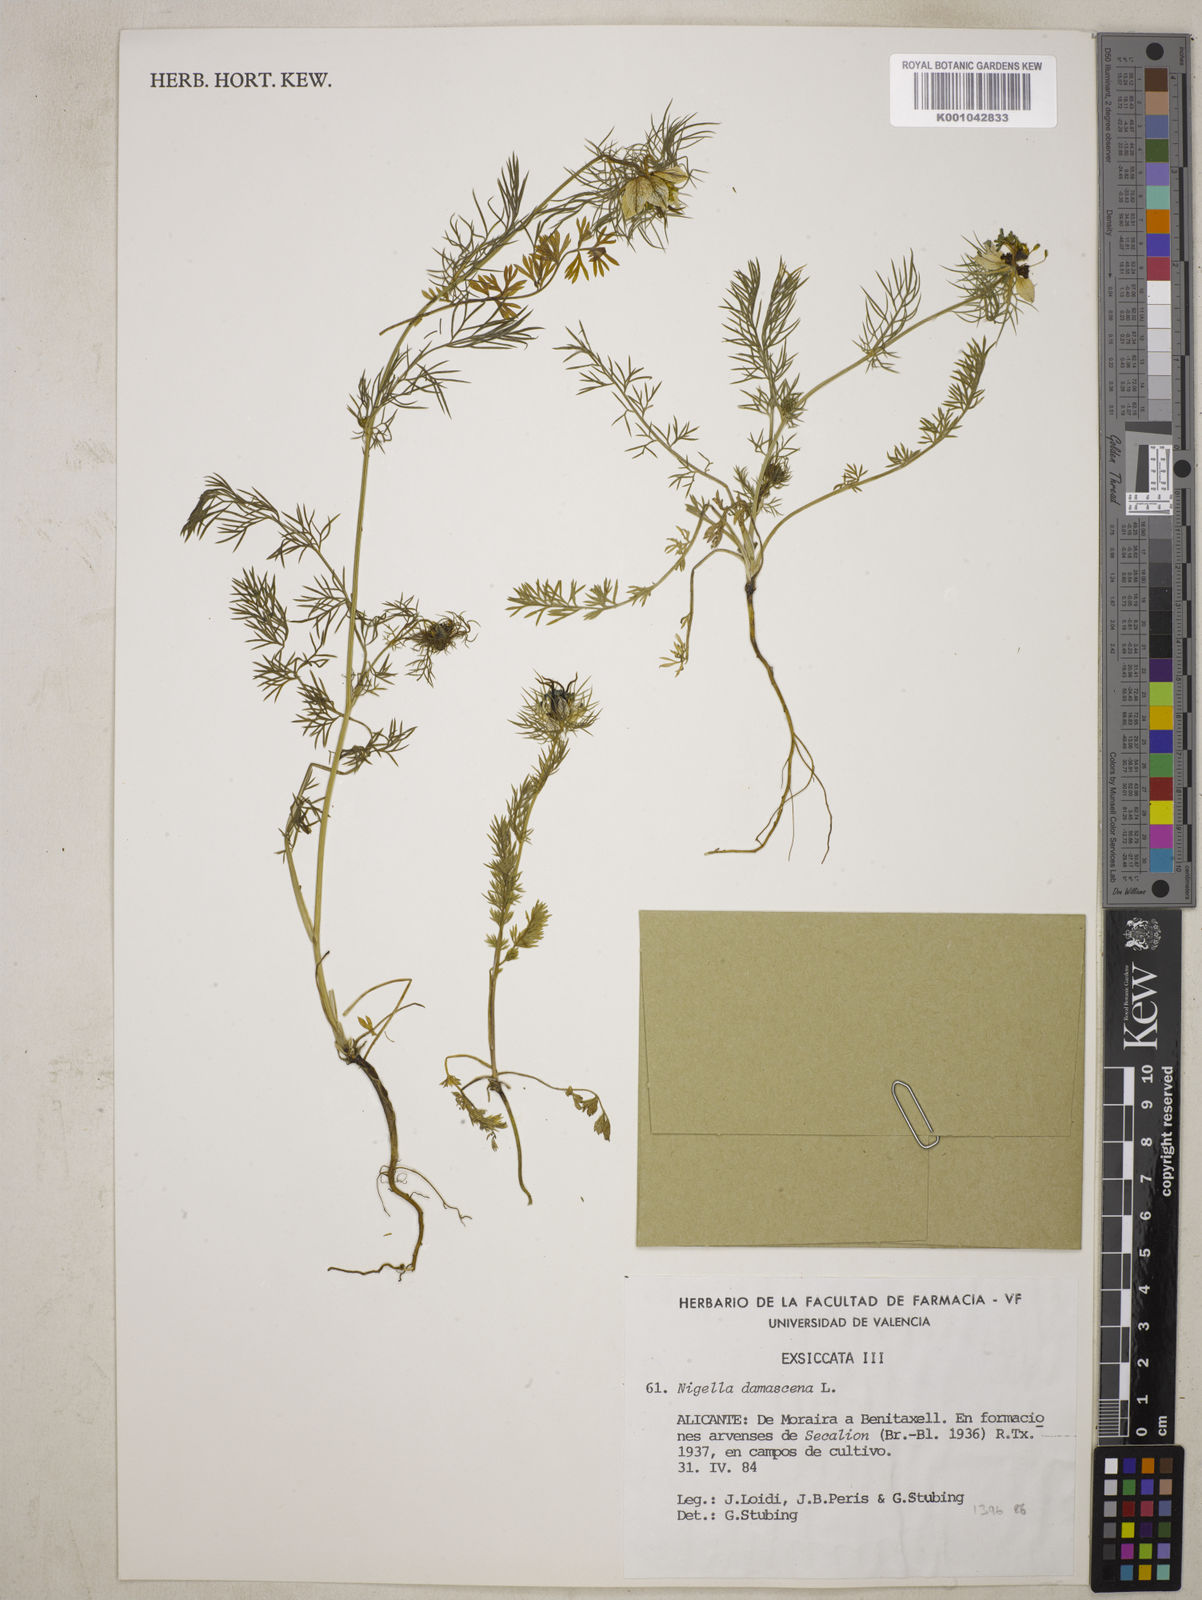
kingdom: Plantae
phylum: Tracheophyta
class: Magnoliopsida
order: Ranunculales
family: Ranunculaceae
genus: Nigella
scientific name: Nigella damascena
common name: Love-in-a-mist
